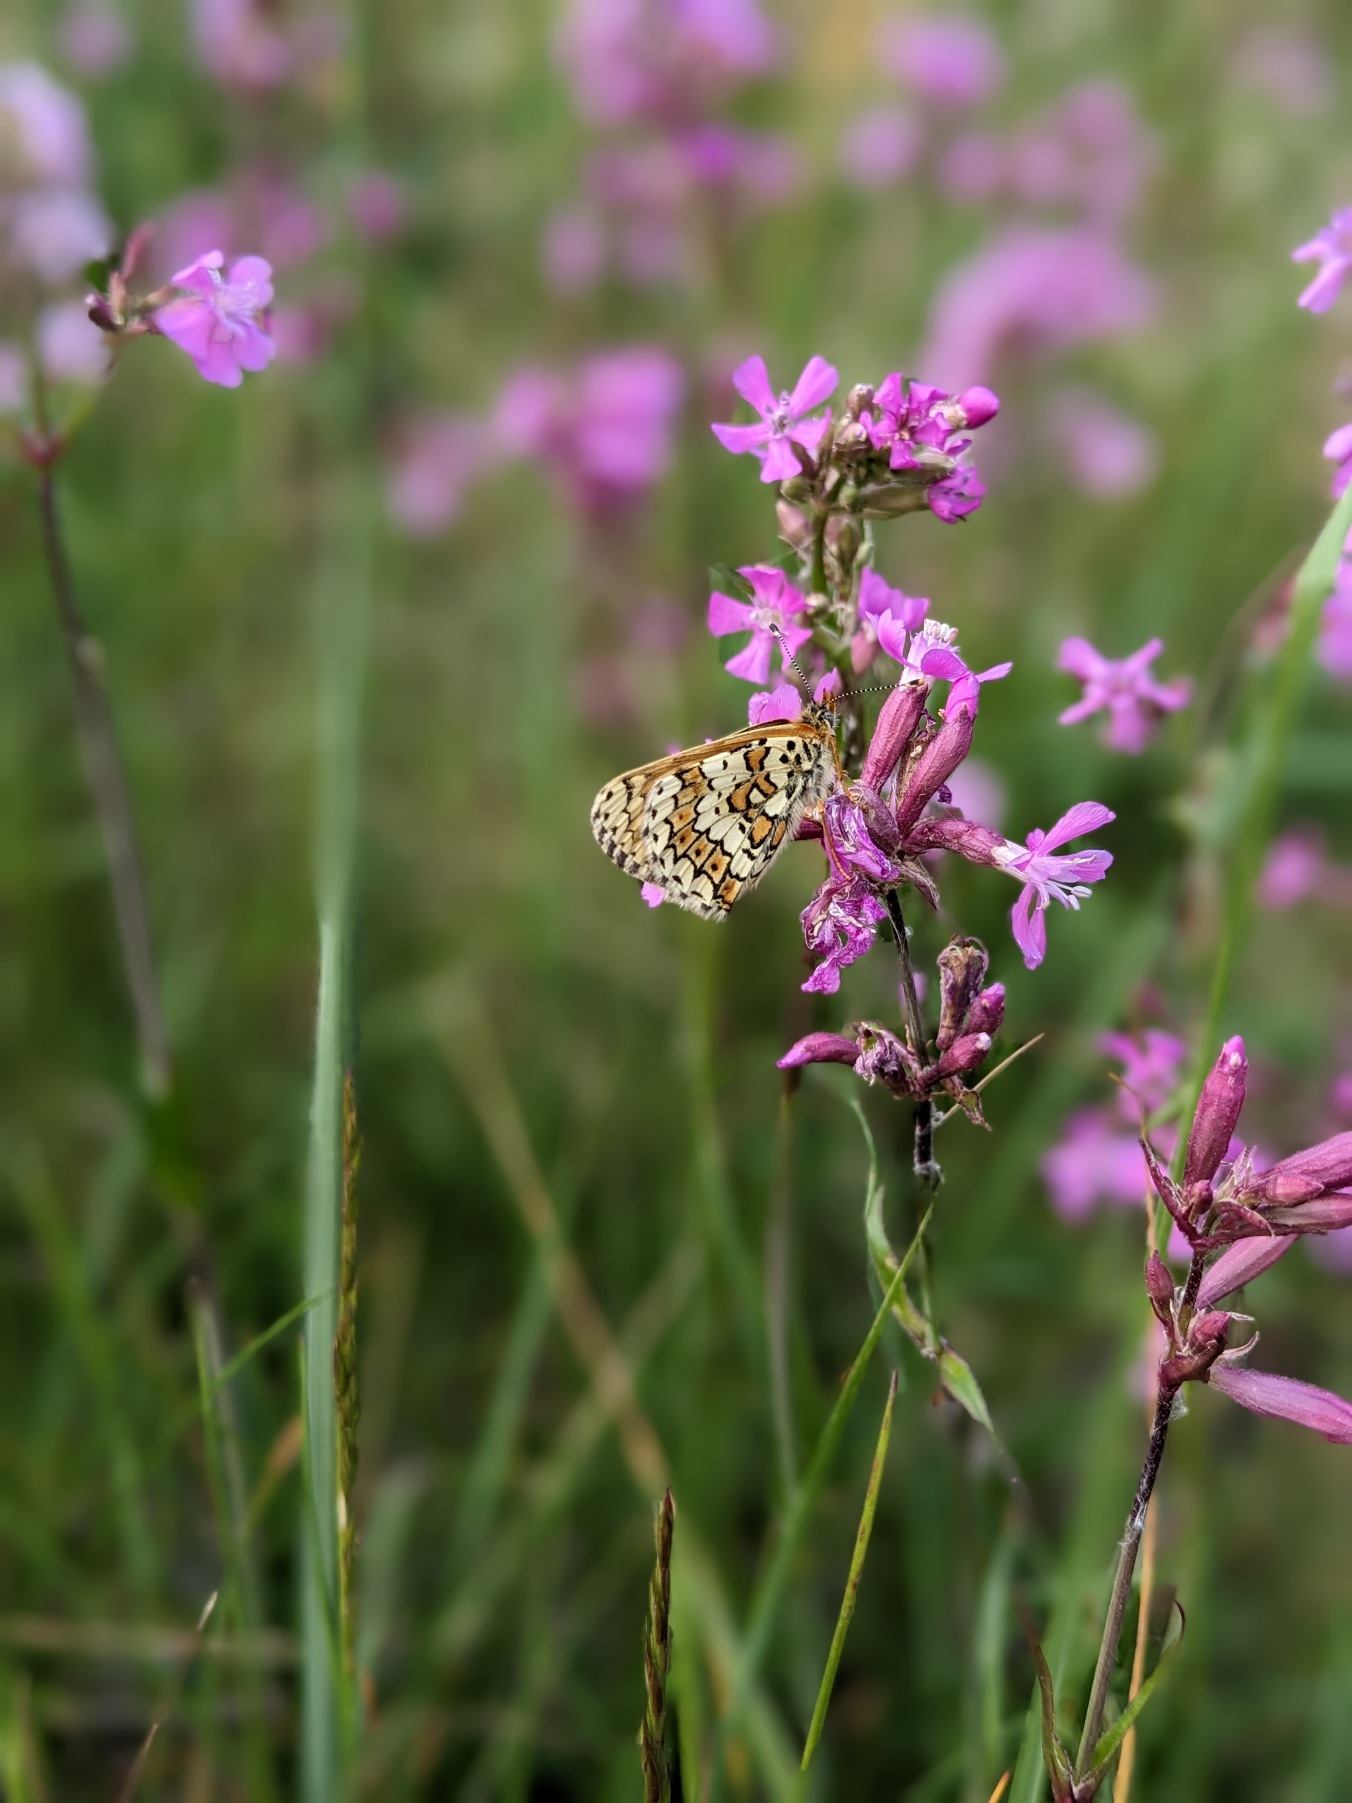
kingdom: Animalia
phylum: Arthropoda
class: Insecta
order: Lepidoptera
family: Nymphalidae
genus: Melitaea
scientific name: Melitaea cinxia
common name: Okkergul pletvinge
